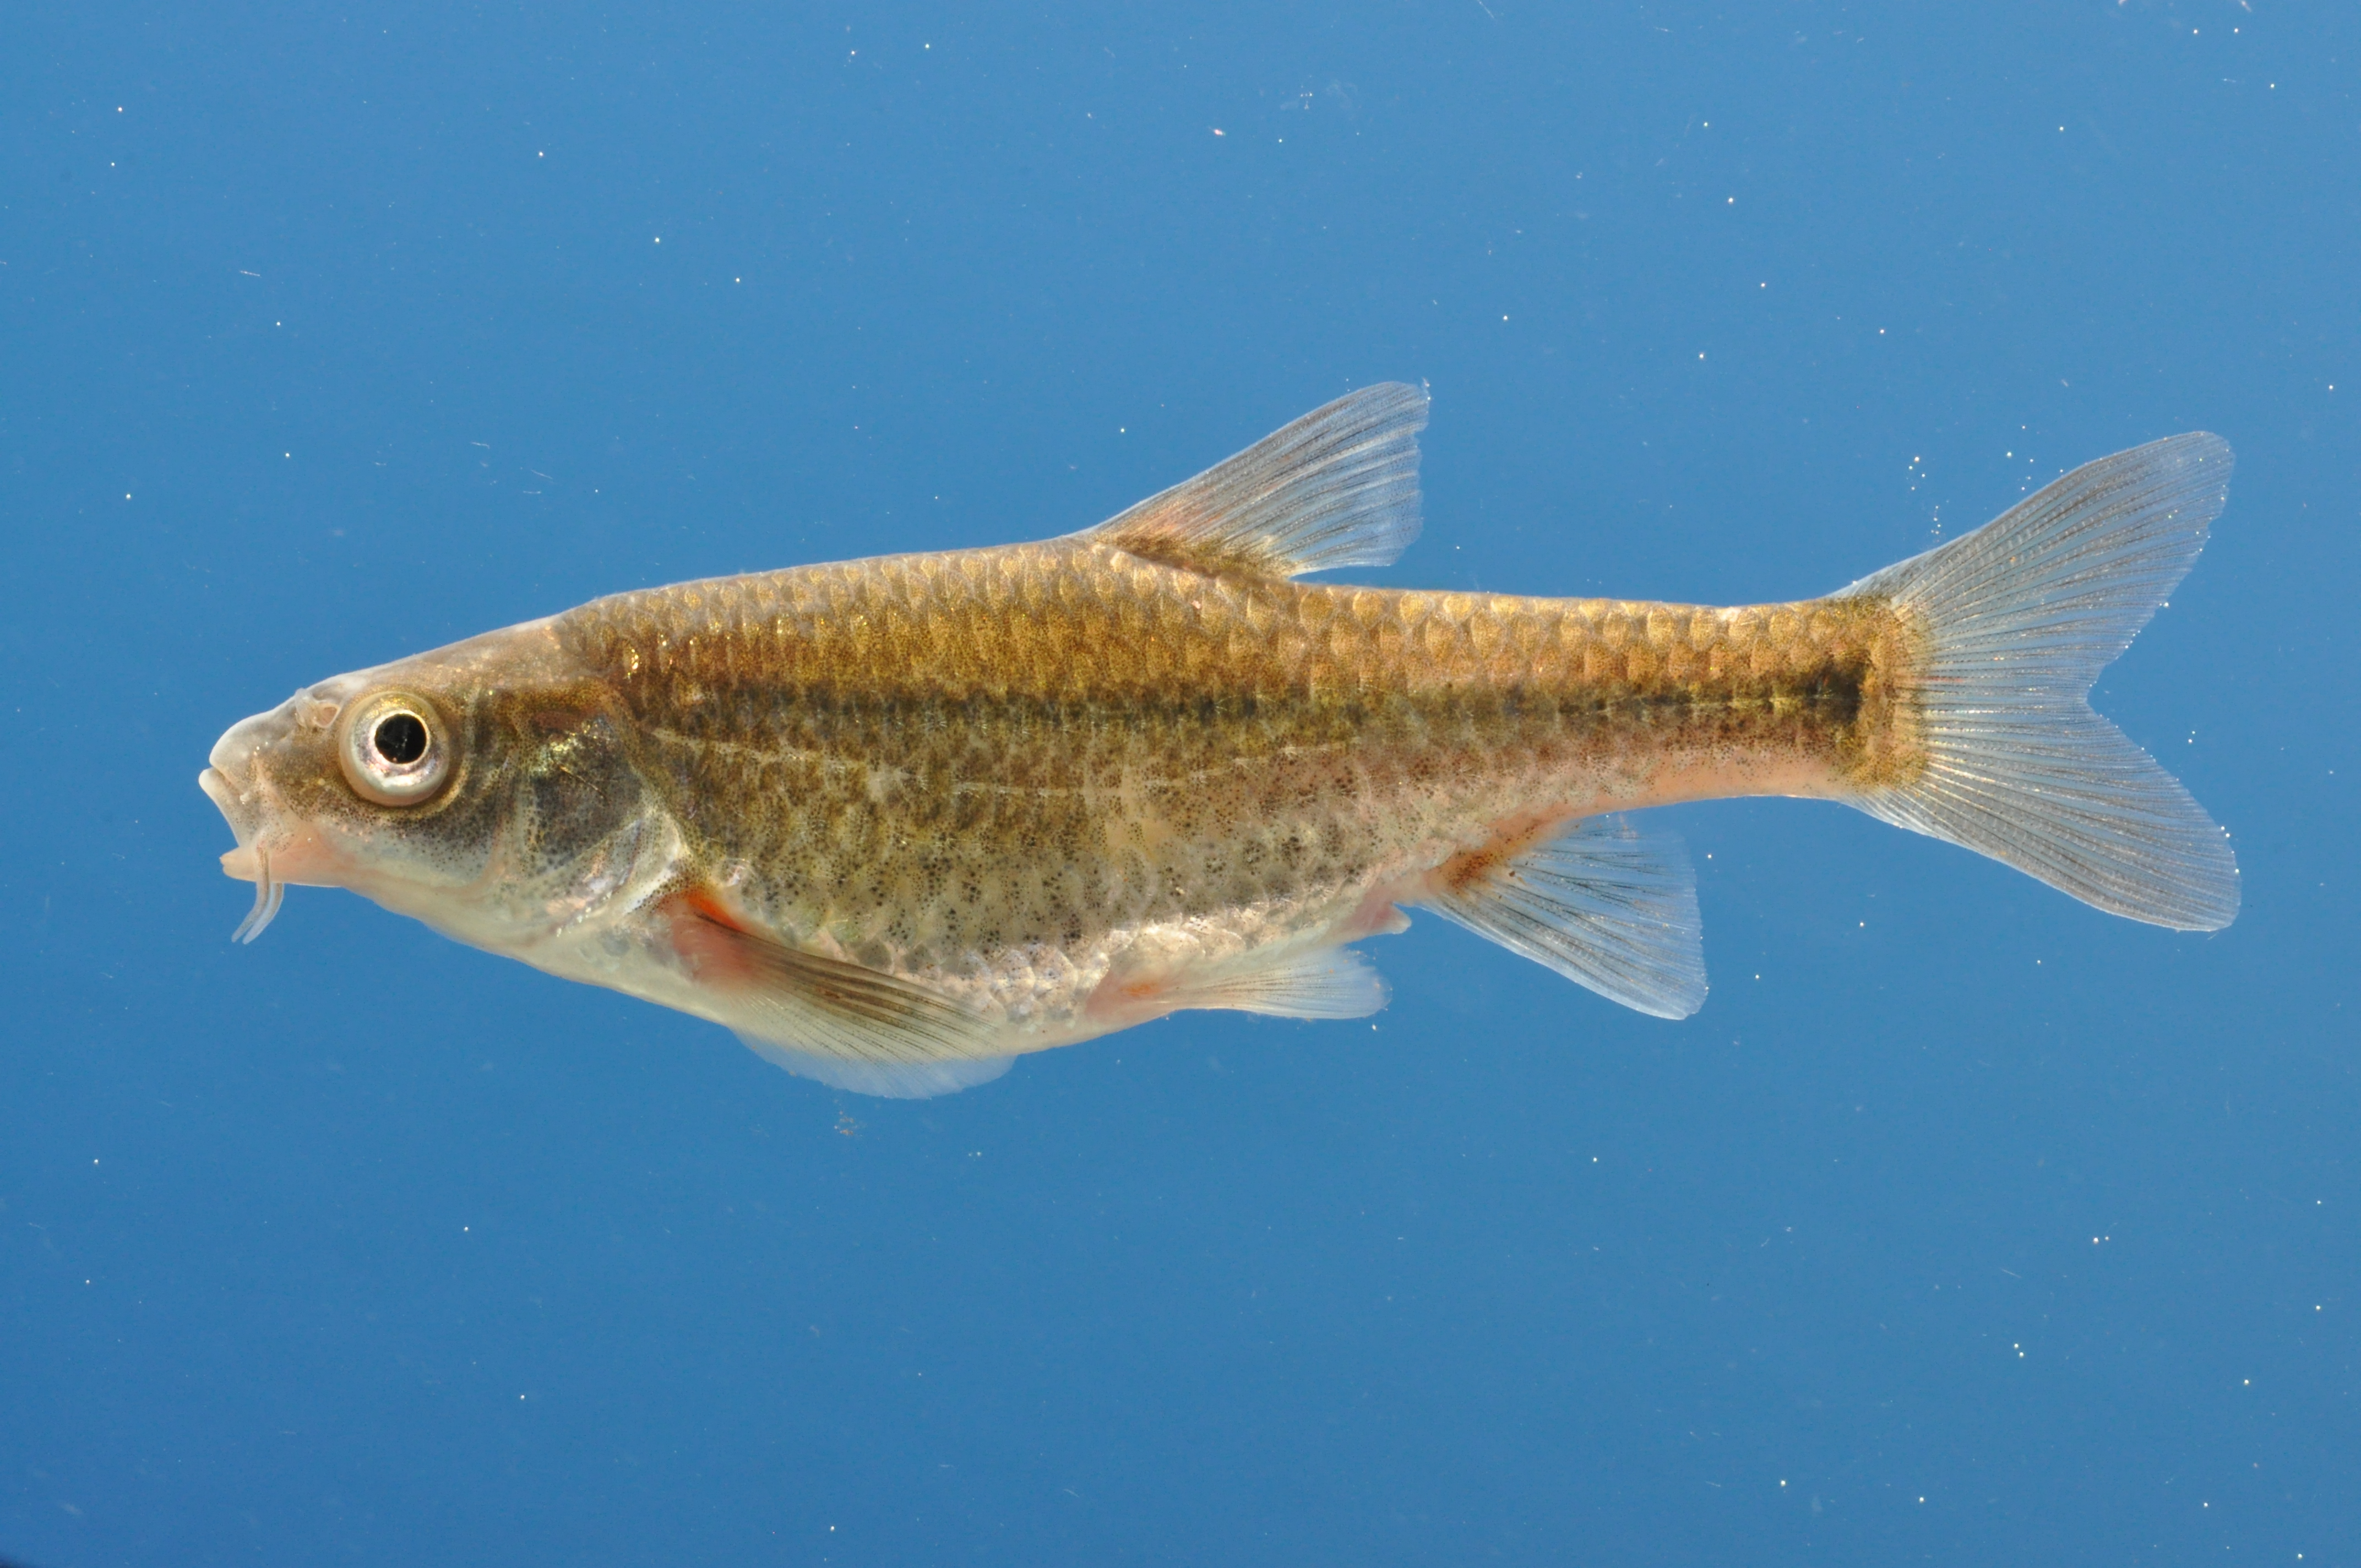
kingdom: Animalia
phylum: Chordata
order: Cypriniformes
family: Cyprinidae
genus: Pseudobarbus
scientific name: Pseudobarbus verloreni
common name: Verlorenvlei redfin
